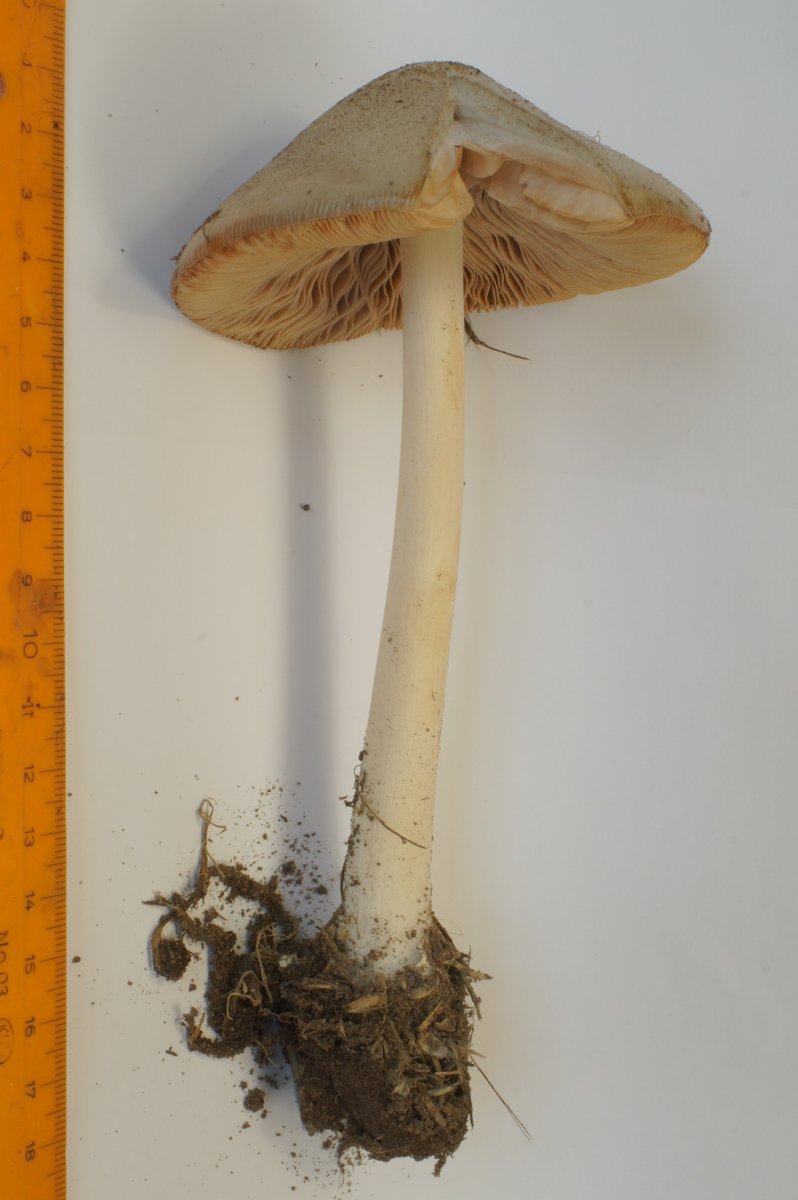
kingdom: Fungi
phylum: Basidiomycota
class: Agaricomycetes
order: Agaricales
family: Pluteaceae
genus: Volvopluteus
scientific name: Volvopluteus gloiocephalus
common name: høj posesvamp
